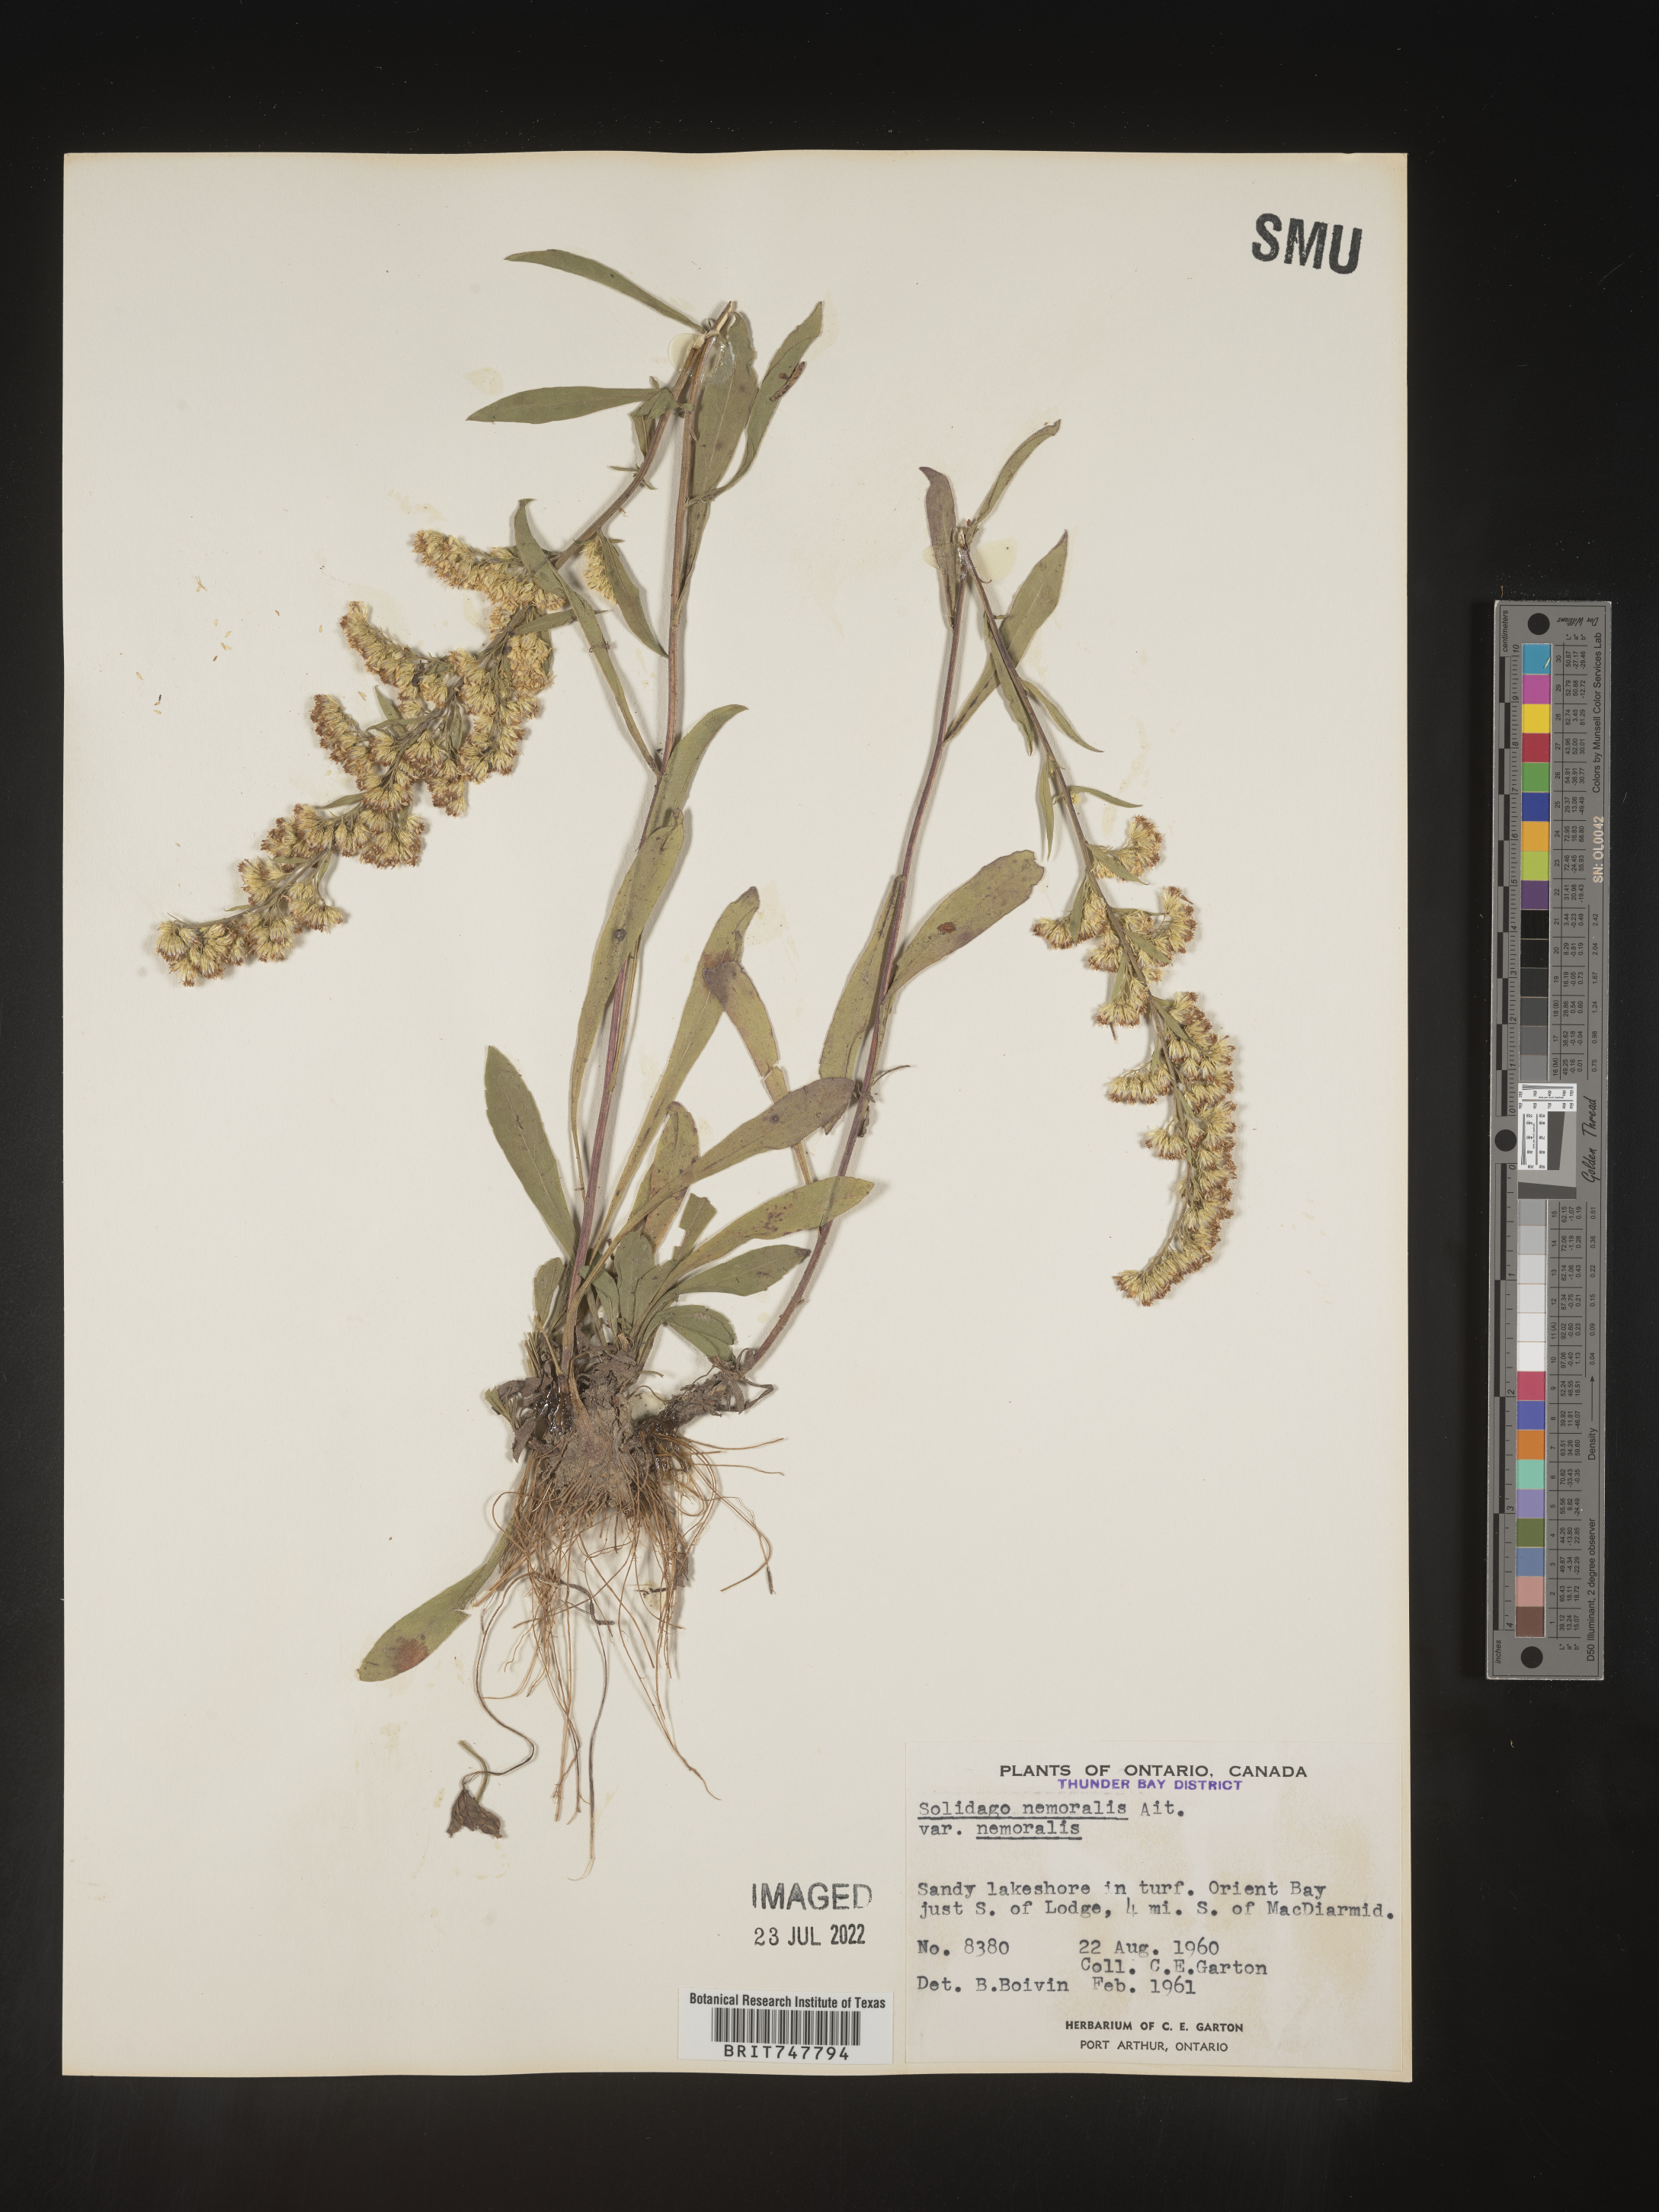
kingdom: Plantae
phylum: Tracheophyta
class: Magnoliopsida
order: Asterales
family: Asteraceae
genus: Solidago
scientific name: Solidago nemoralis
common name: Grey goldenrod
